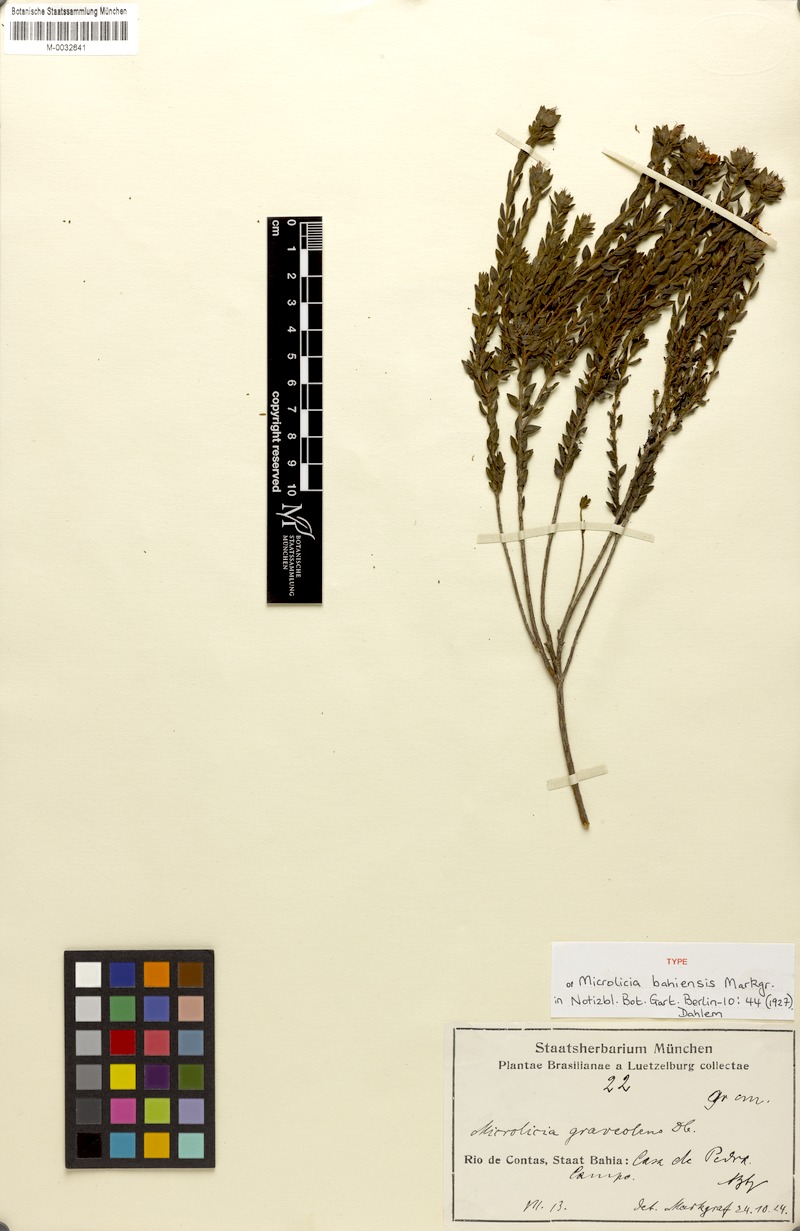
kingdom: Plantae
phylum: Tracheophyta
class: Magnoliopsida
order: Myrtales
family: Melastomataceae
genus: Microlicia
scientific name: Microlicia bahiensis
